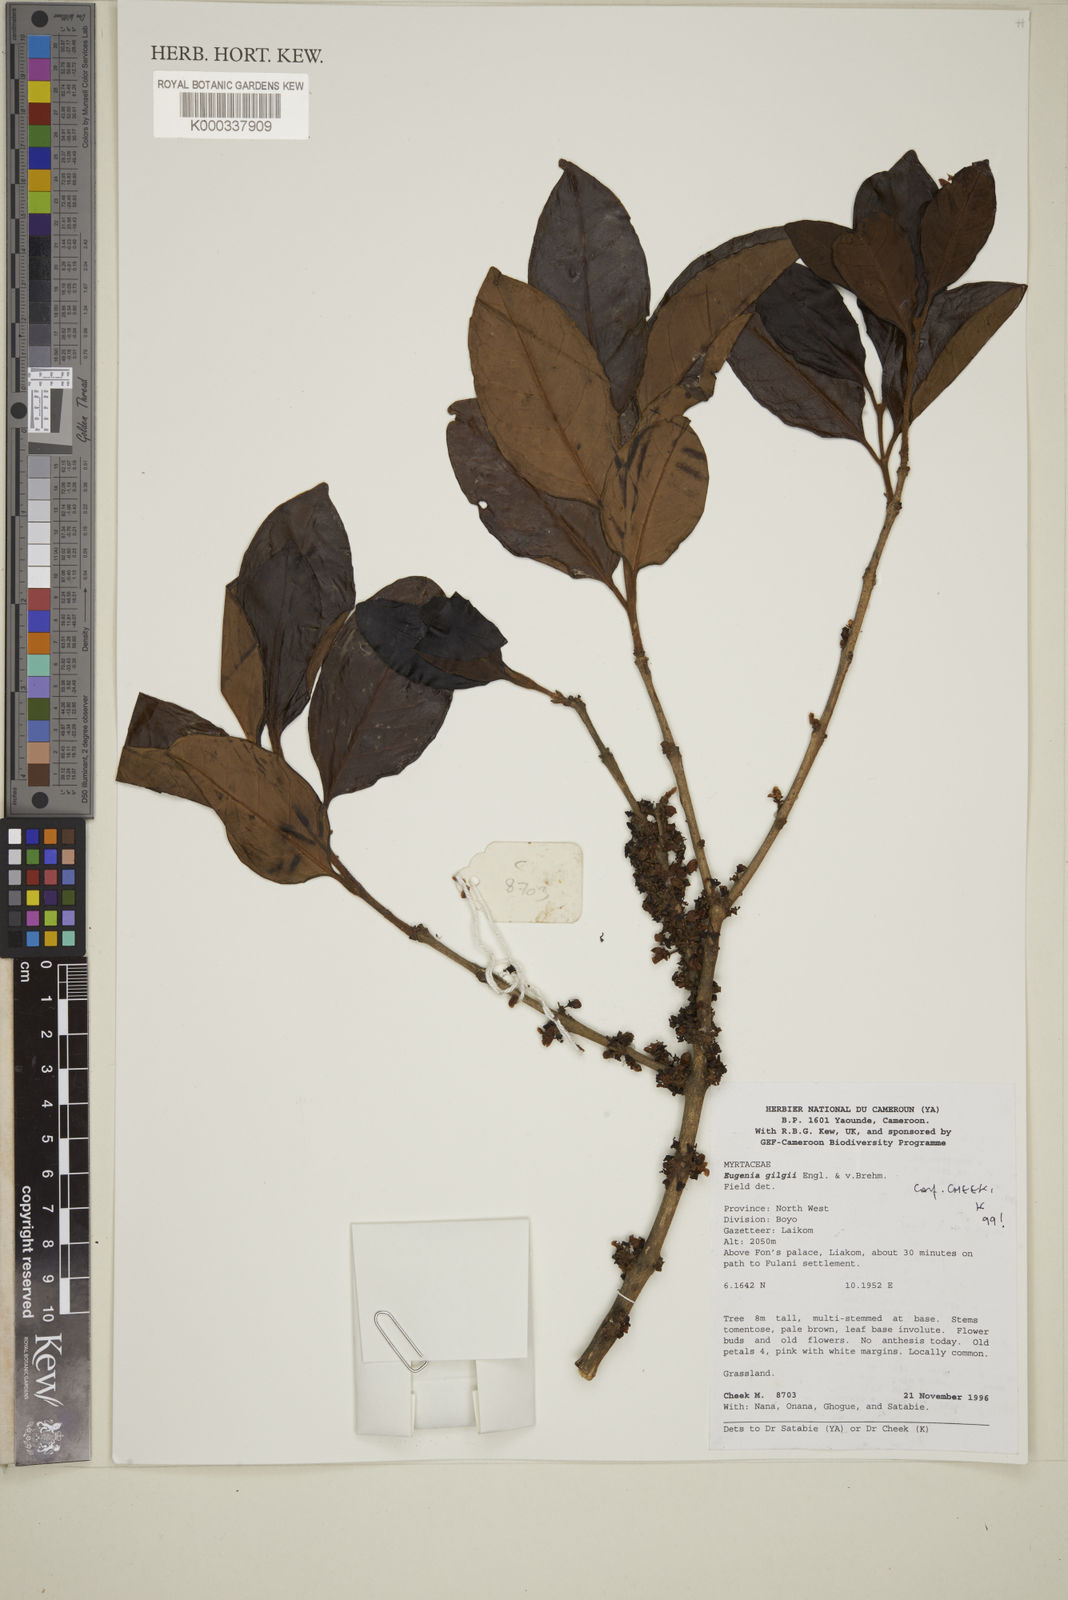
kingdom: Plantae
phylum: Tracheophyta
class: Magnoliopsida
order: Myrtales
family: Myrtaceae
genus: Eugenia
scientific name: Eugenia gilgii
